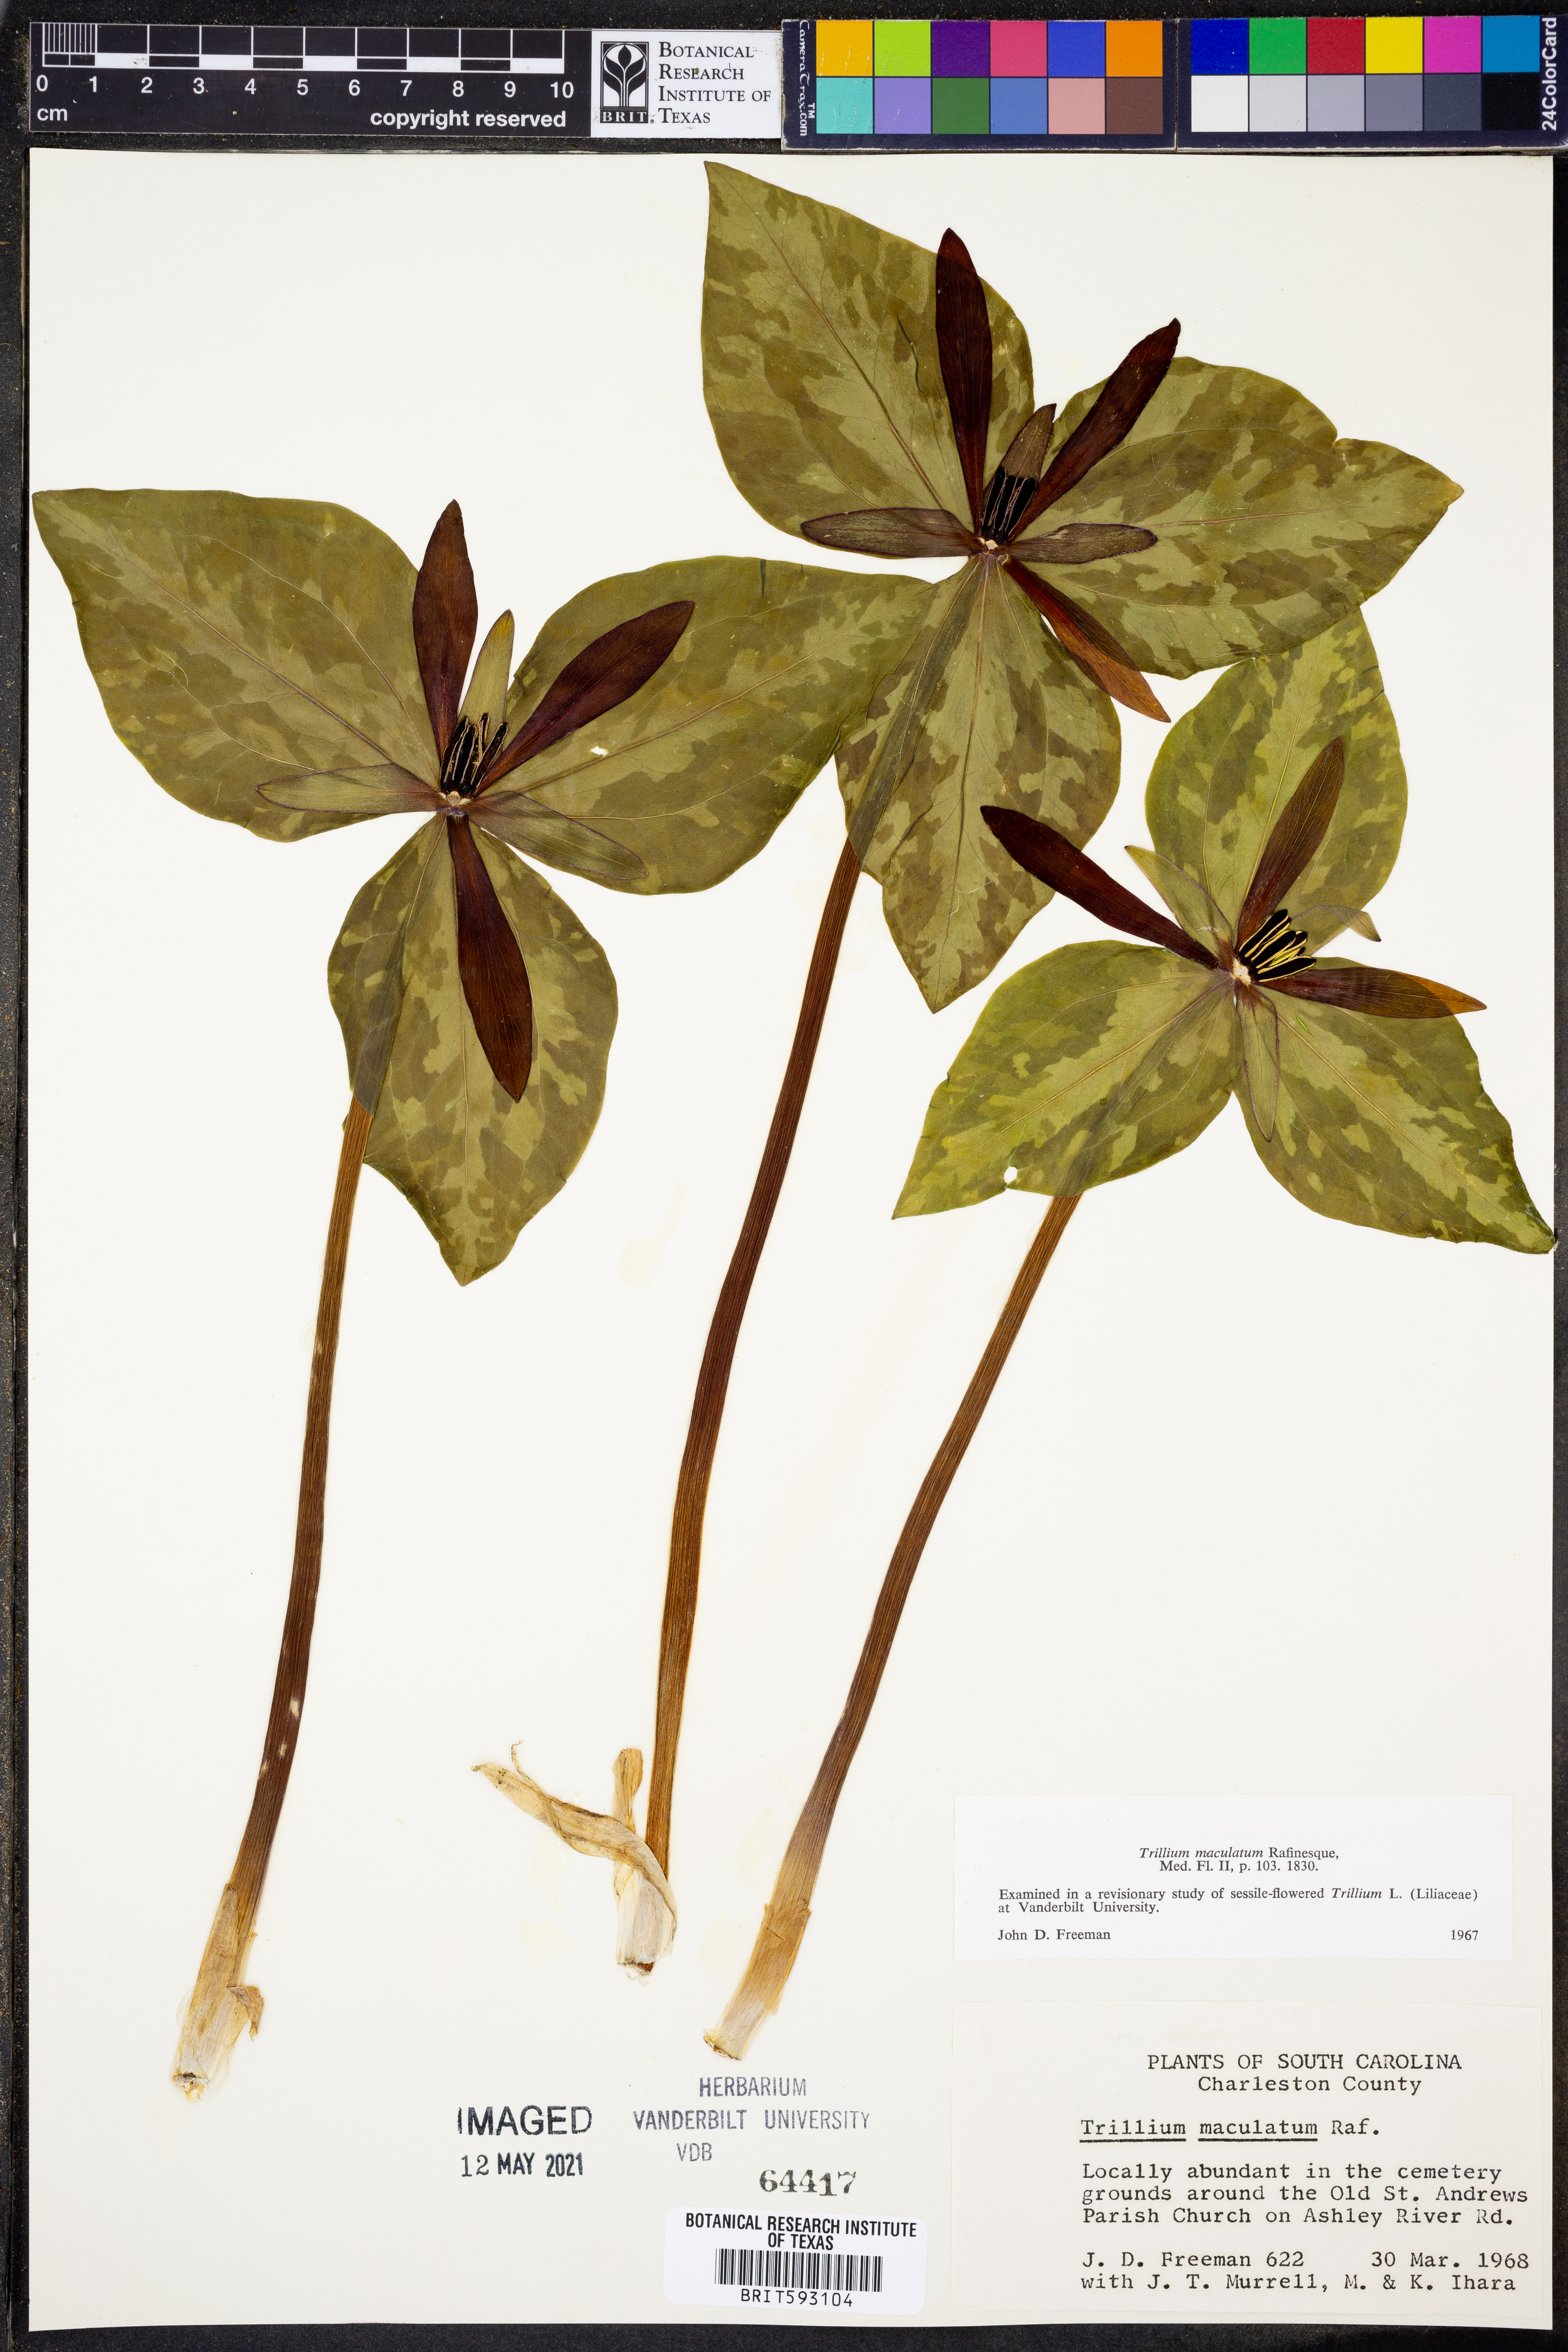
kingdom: Plantae
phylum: Tracheophyta
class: Liliopsida
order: Liliales
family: Melanthiaceae
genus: Trillium
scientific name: Trillium maculatum
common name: Mottled trillium
